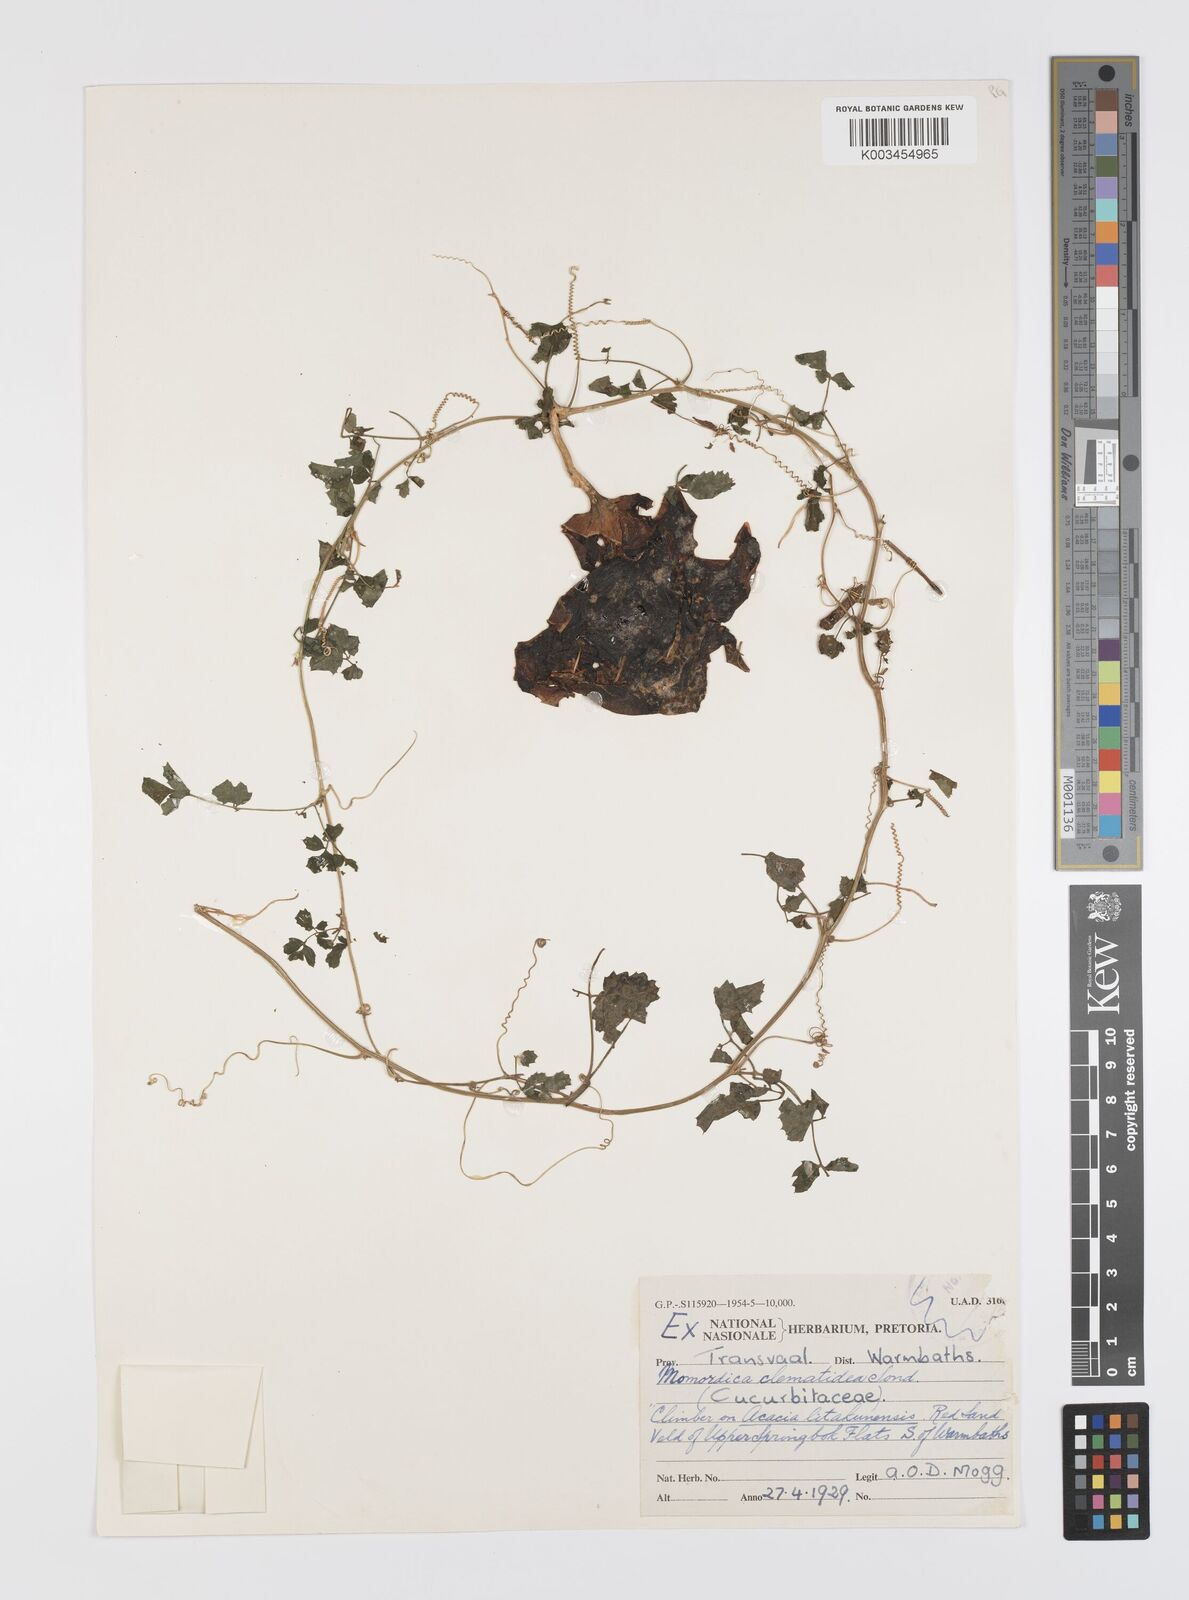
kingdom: Plantae
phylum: Tracheophyta
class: Magnoliopsida
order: Cucurbitales
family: Cucurbitaceae
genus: Momordica
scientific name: Momordica cardiospermoides
